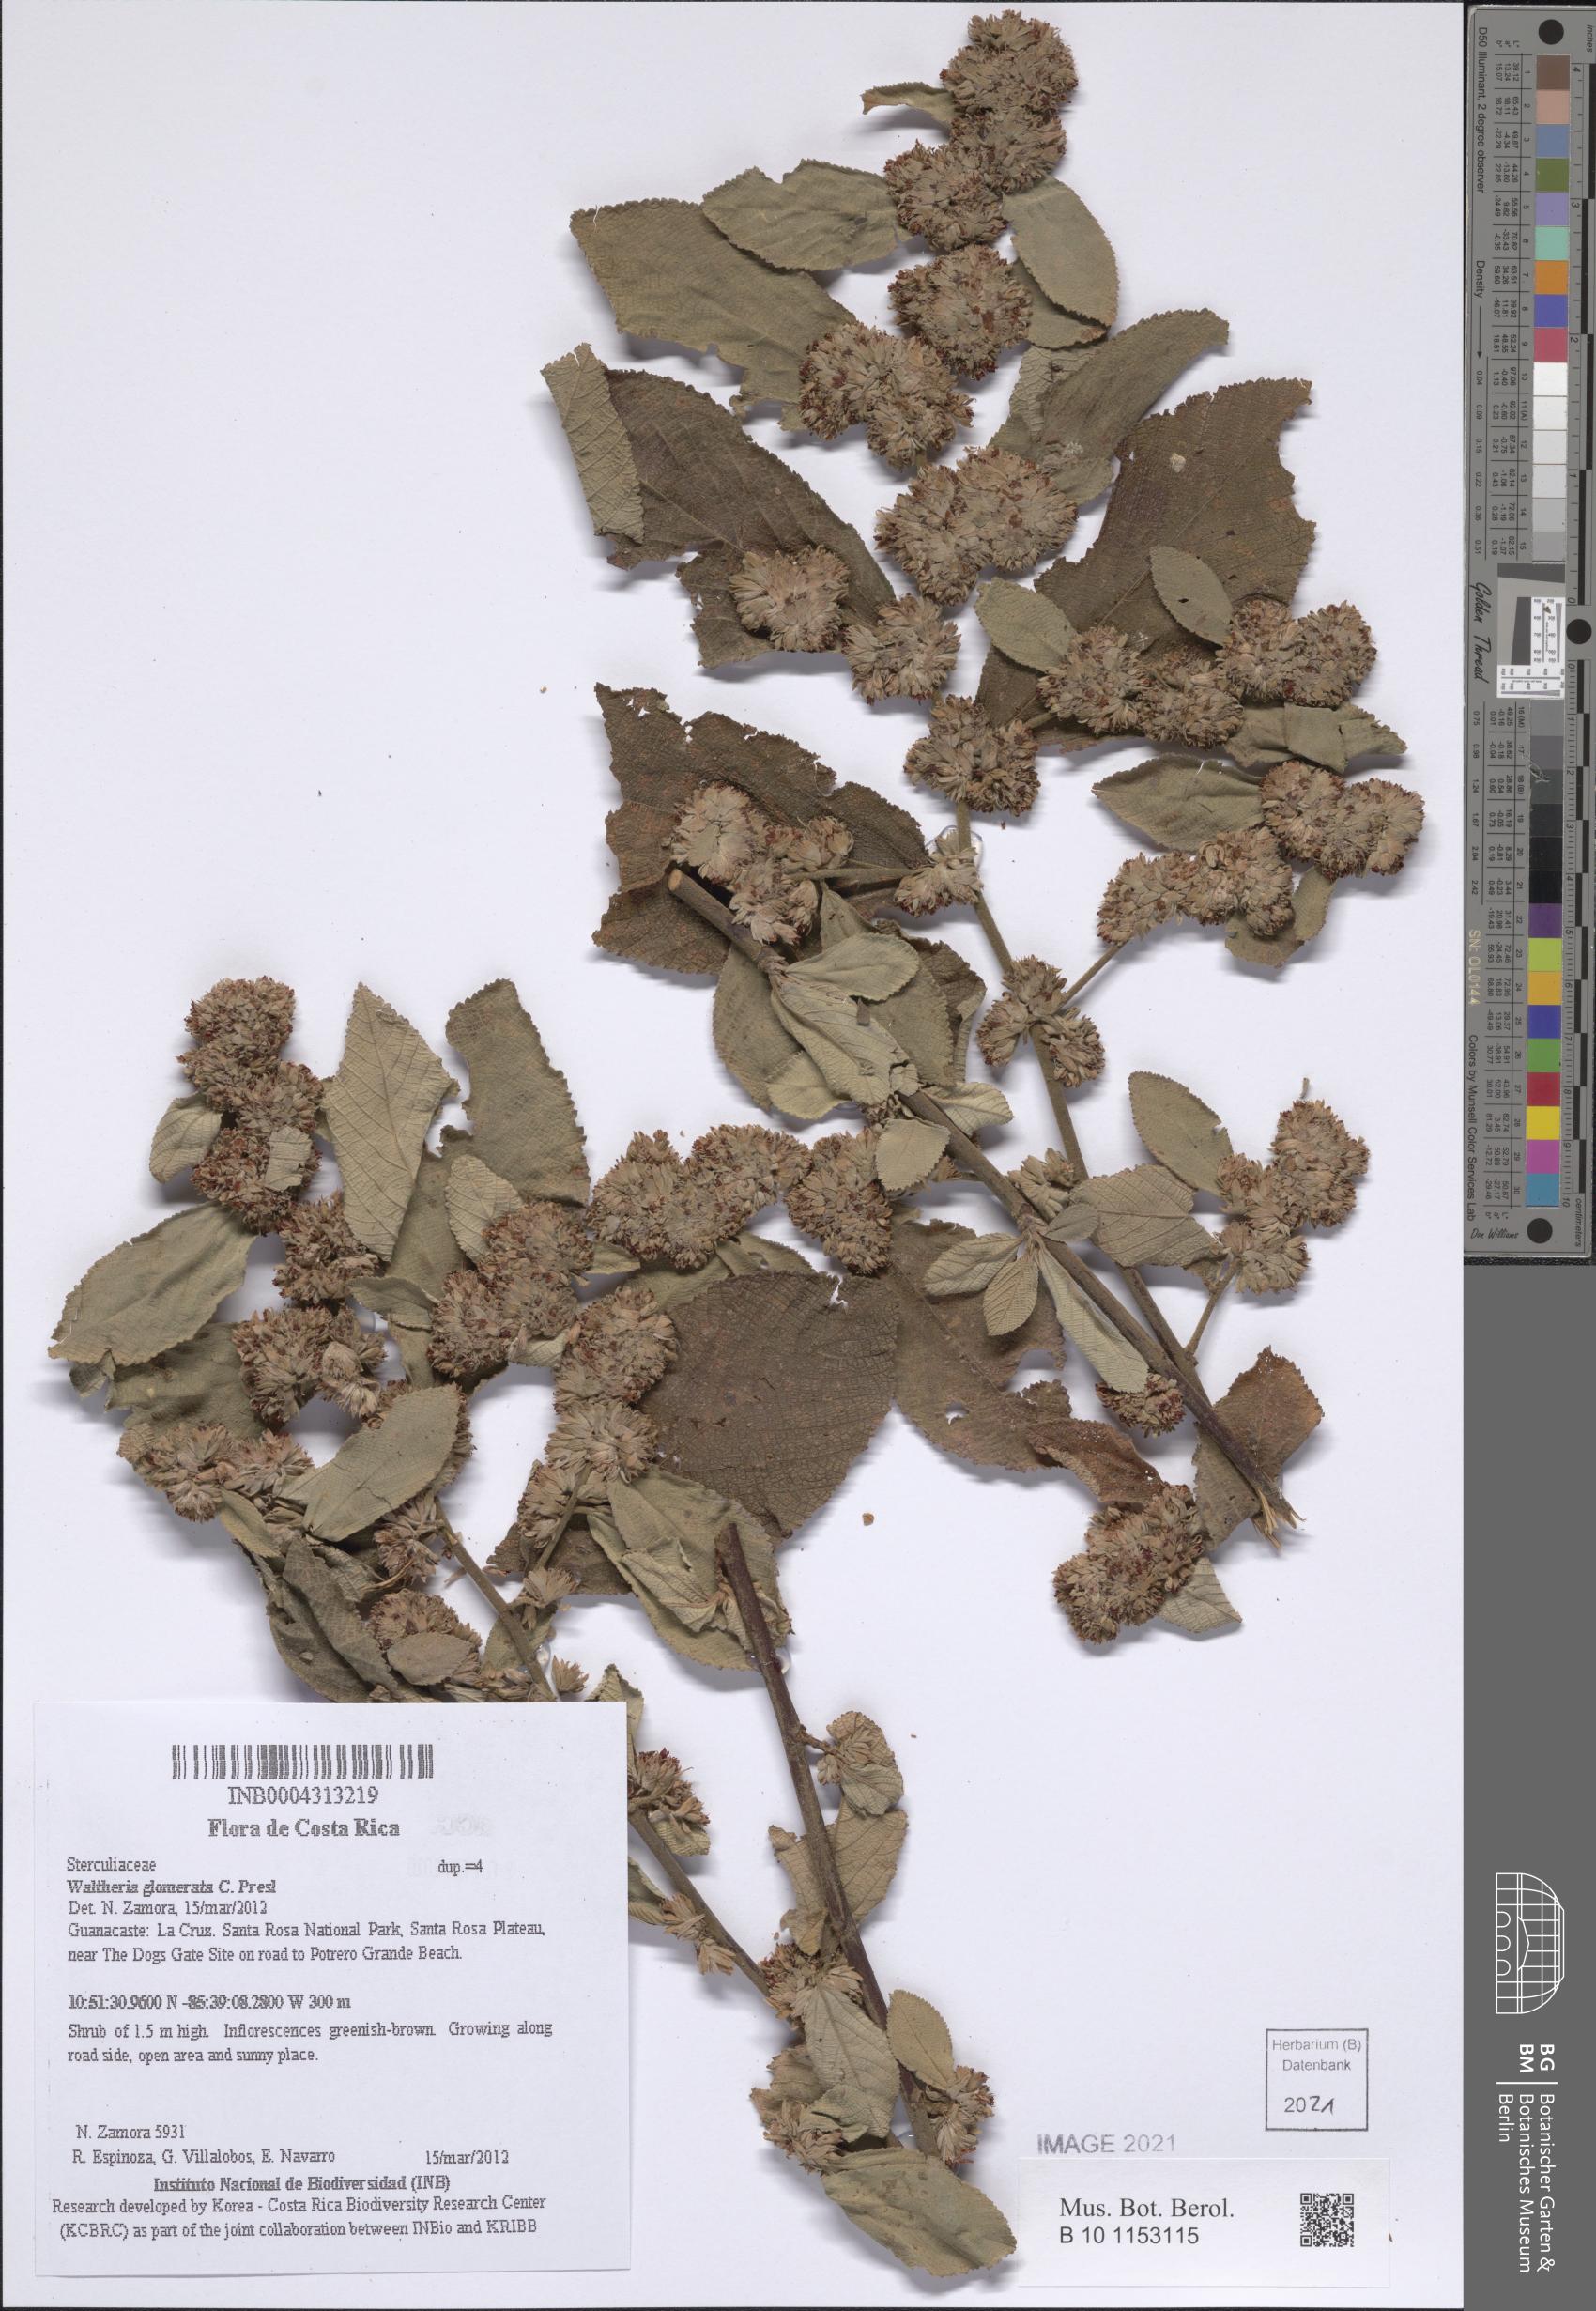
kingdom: Plantae
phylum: Tracheophyta
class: Magnoliopsida
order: Malvales
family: Malvaceae
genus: Waltheria
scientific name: Waltheria glomerata
